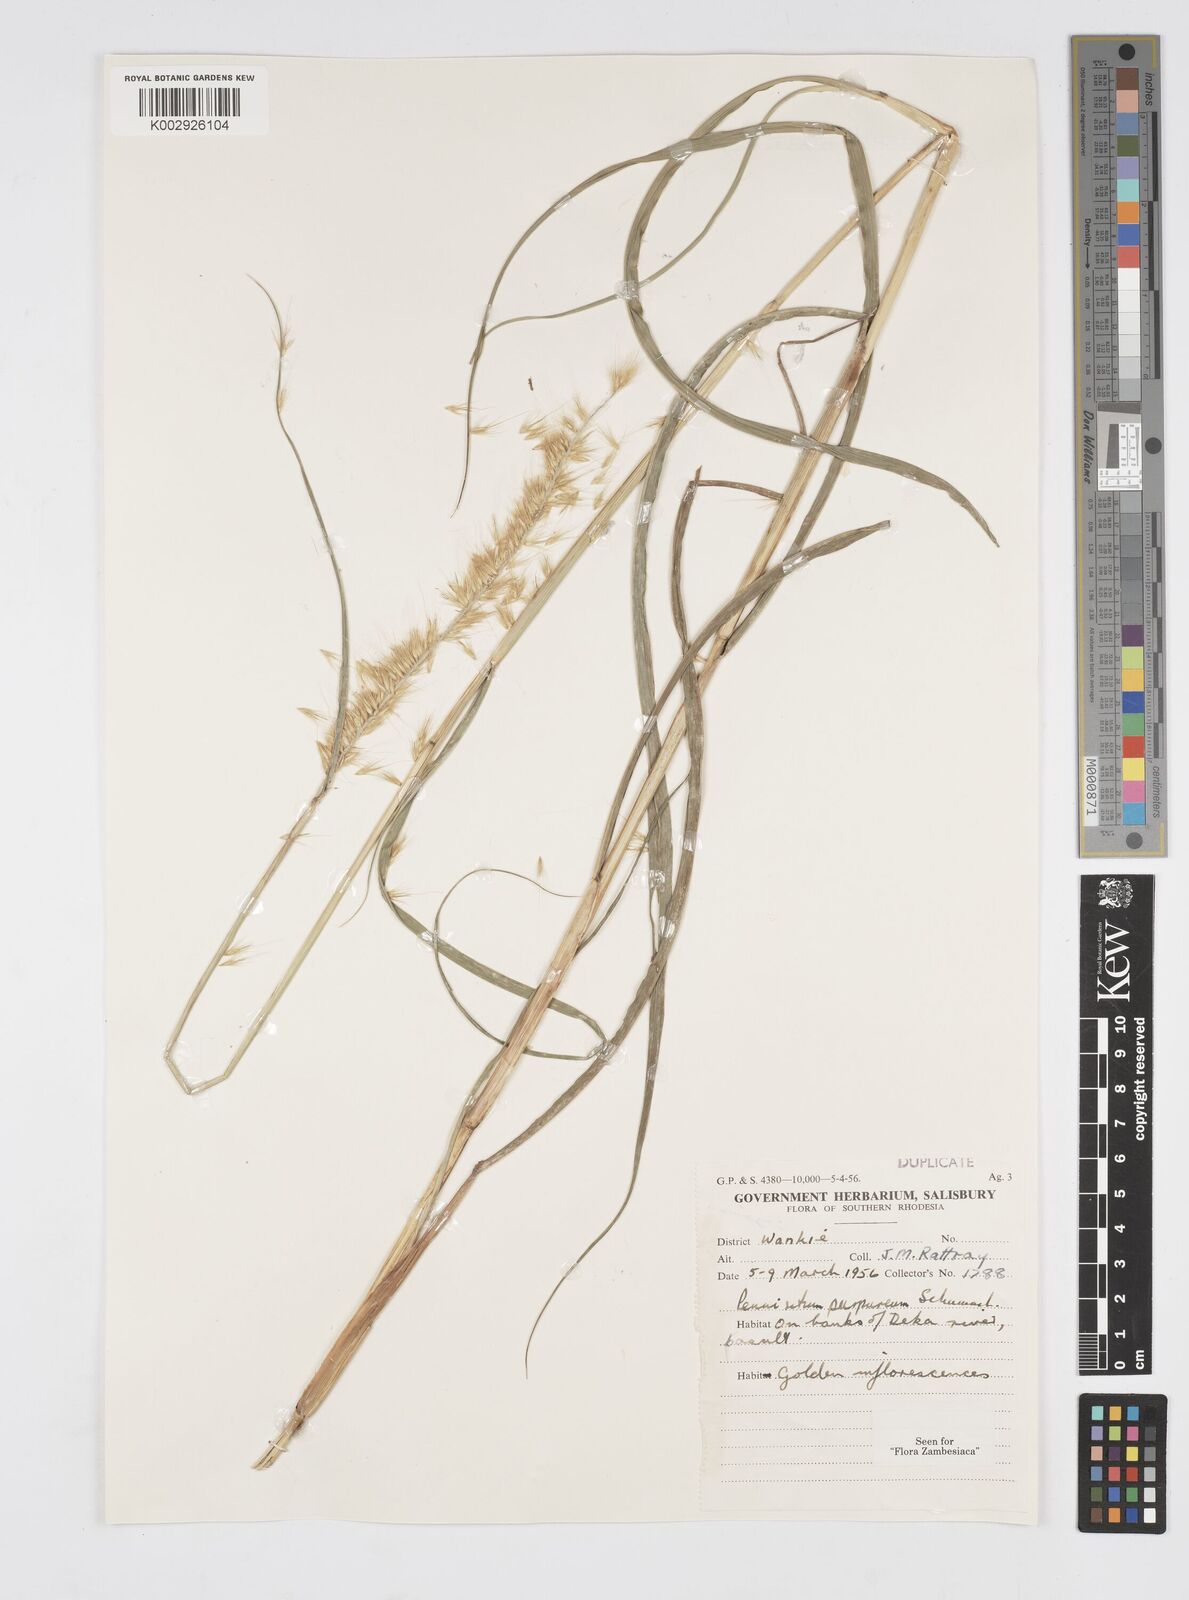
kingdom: Plantae
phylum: Tracheophyta
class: Liliopsida
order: Poales
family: Poaceae
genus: Cenchrus
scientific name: Cenchrus purpureus
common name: Elephant grass
